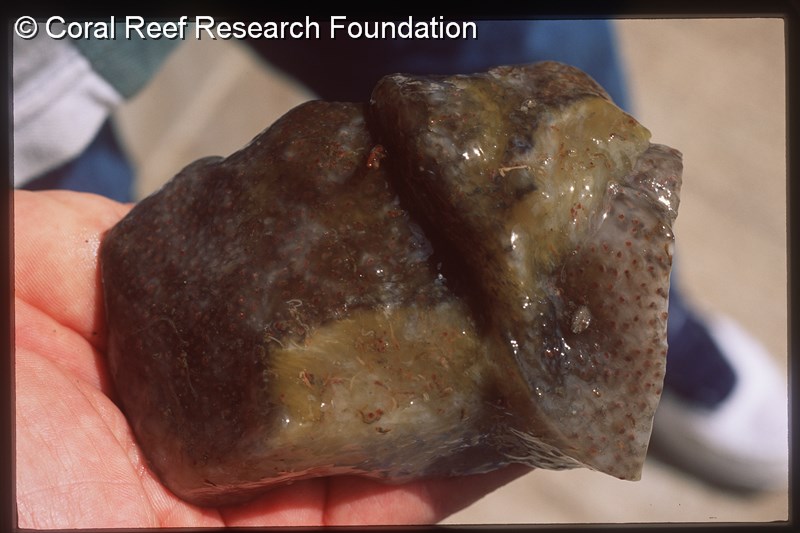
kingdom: Animalia
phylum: Chordata
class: Ascidiacea
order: Aplousobranchia
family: Pseudodistomidae
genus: Pseudodistoma
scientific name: Pseudodistoma
